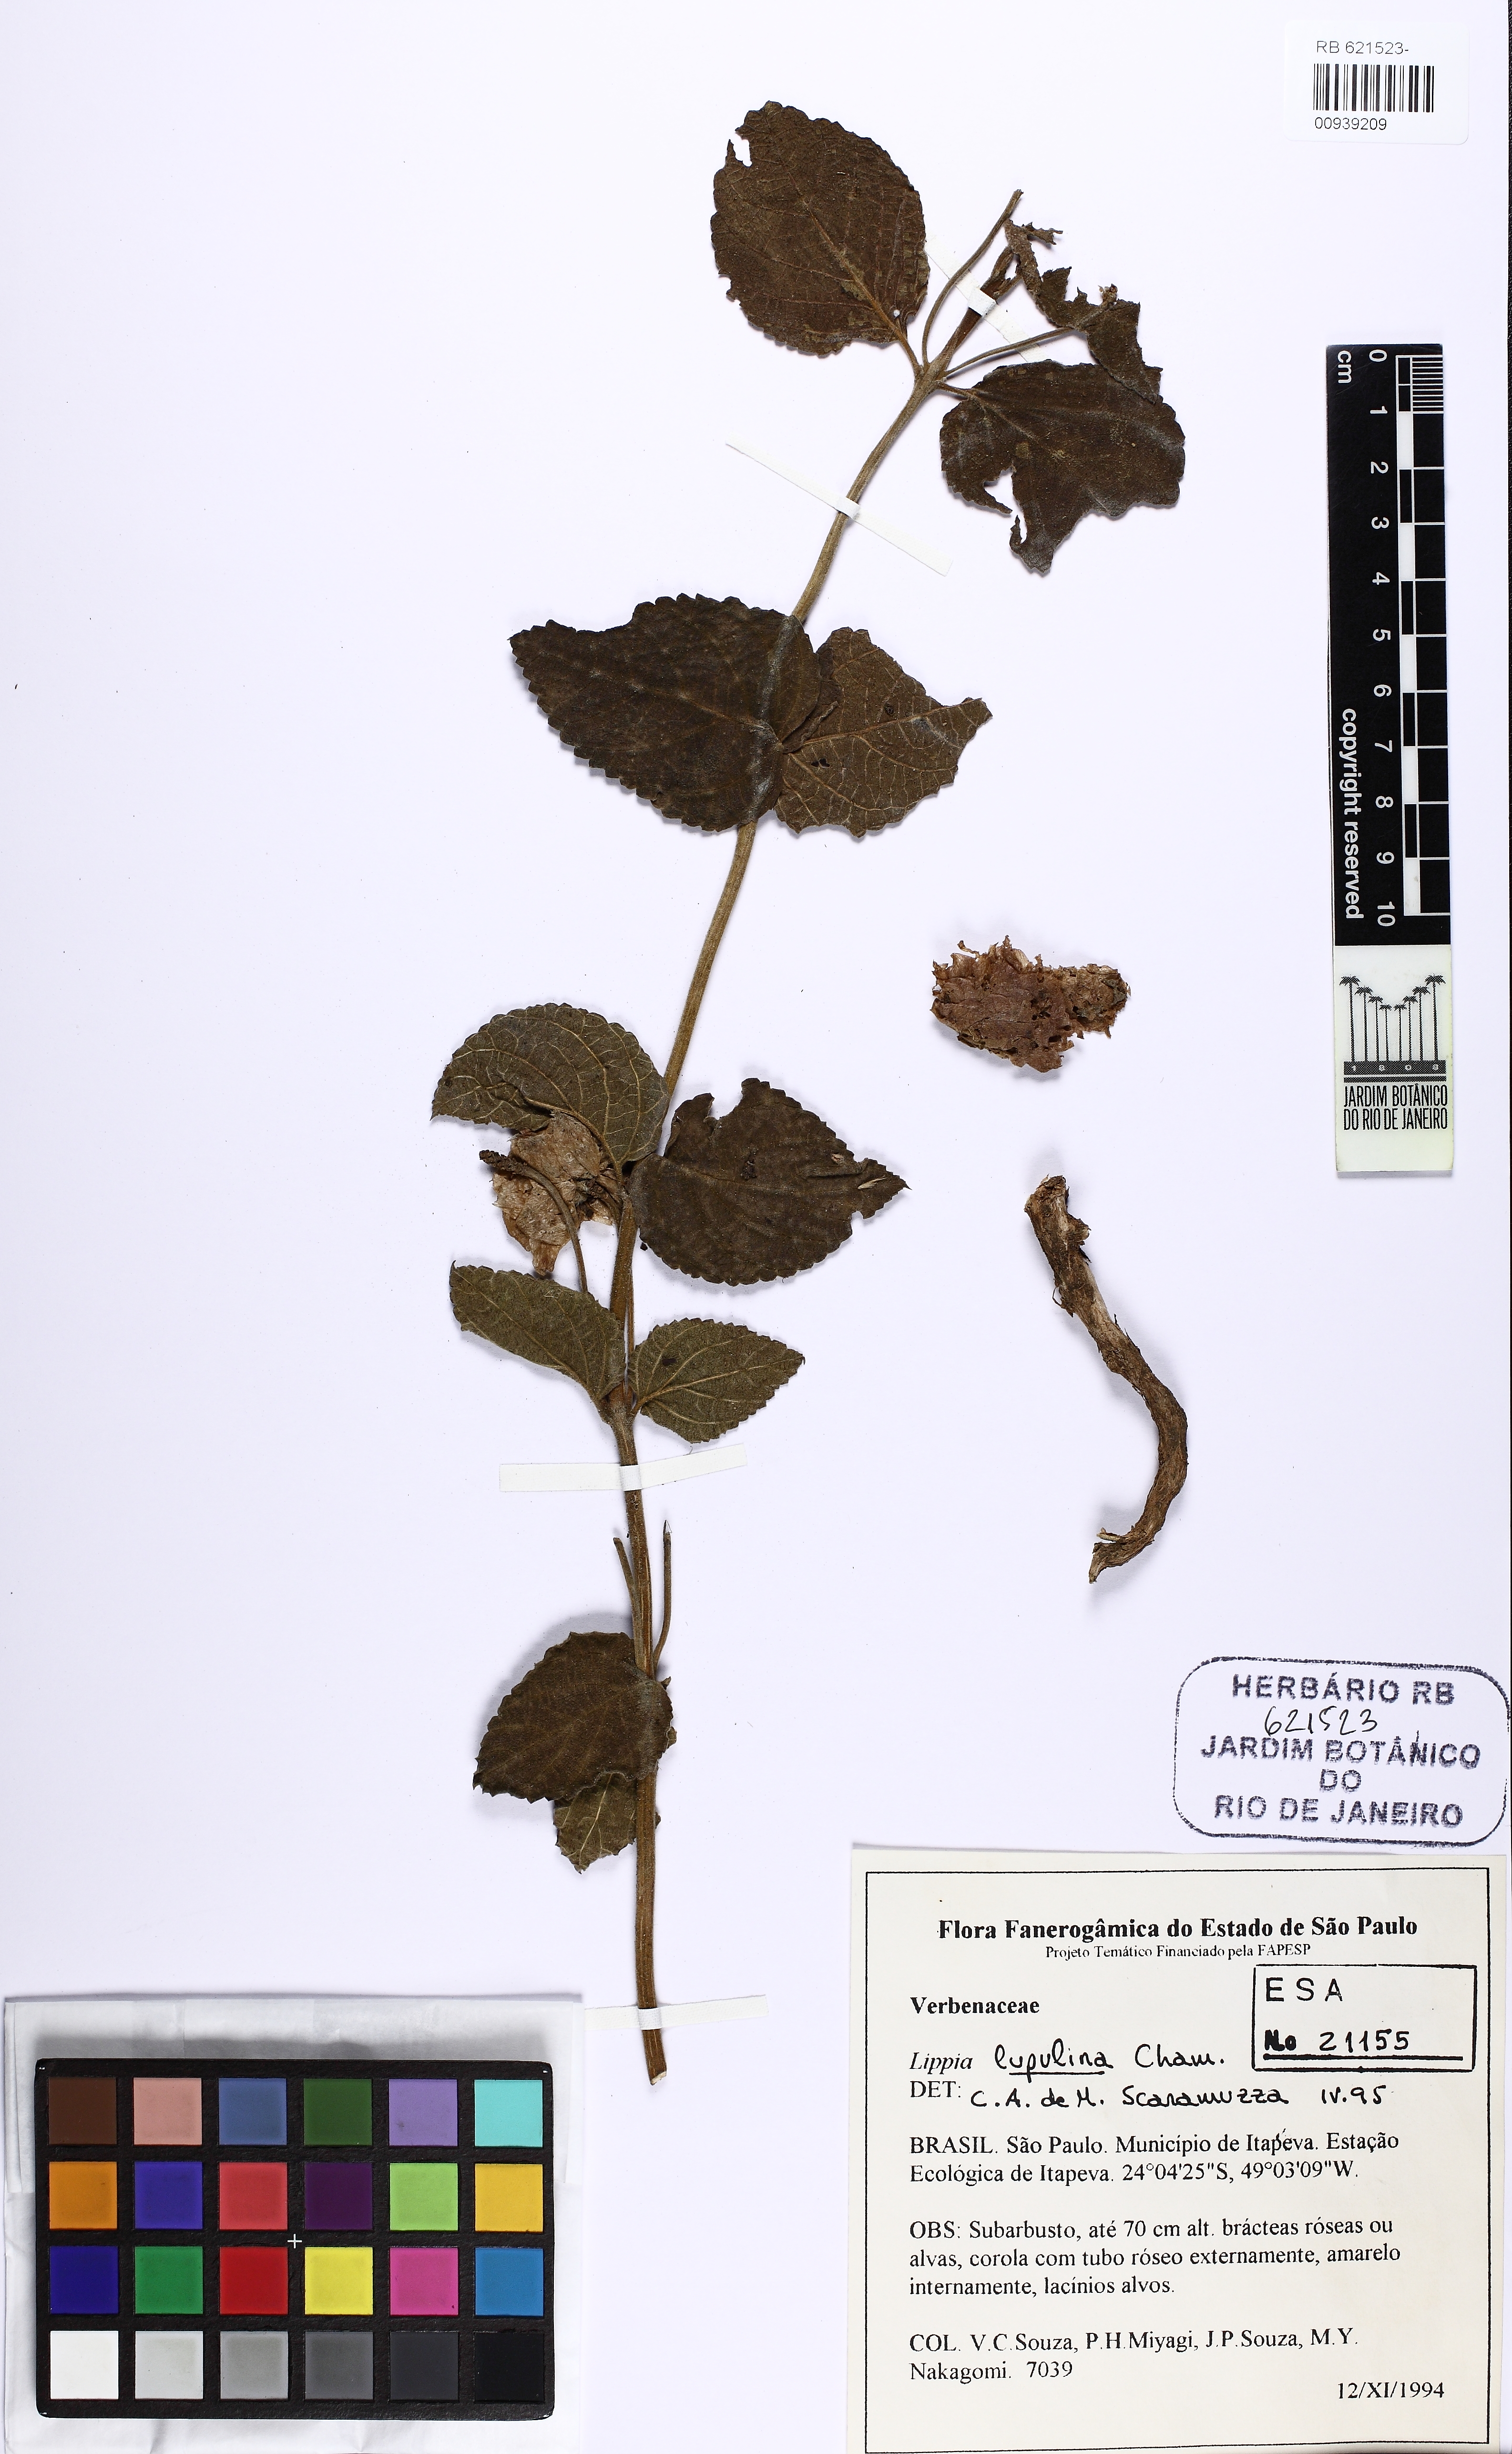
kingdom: Plantae
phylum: Tracheophyta
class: Magnoliopsida
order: Lamiales
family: Verbenaceae
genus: Lippia
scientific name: Lippia lupulina
